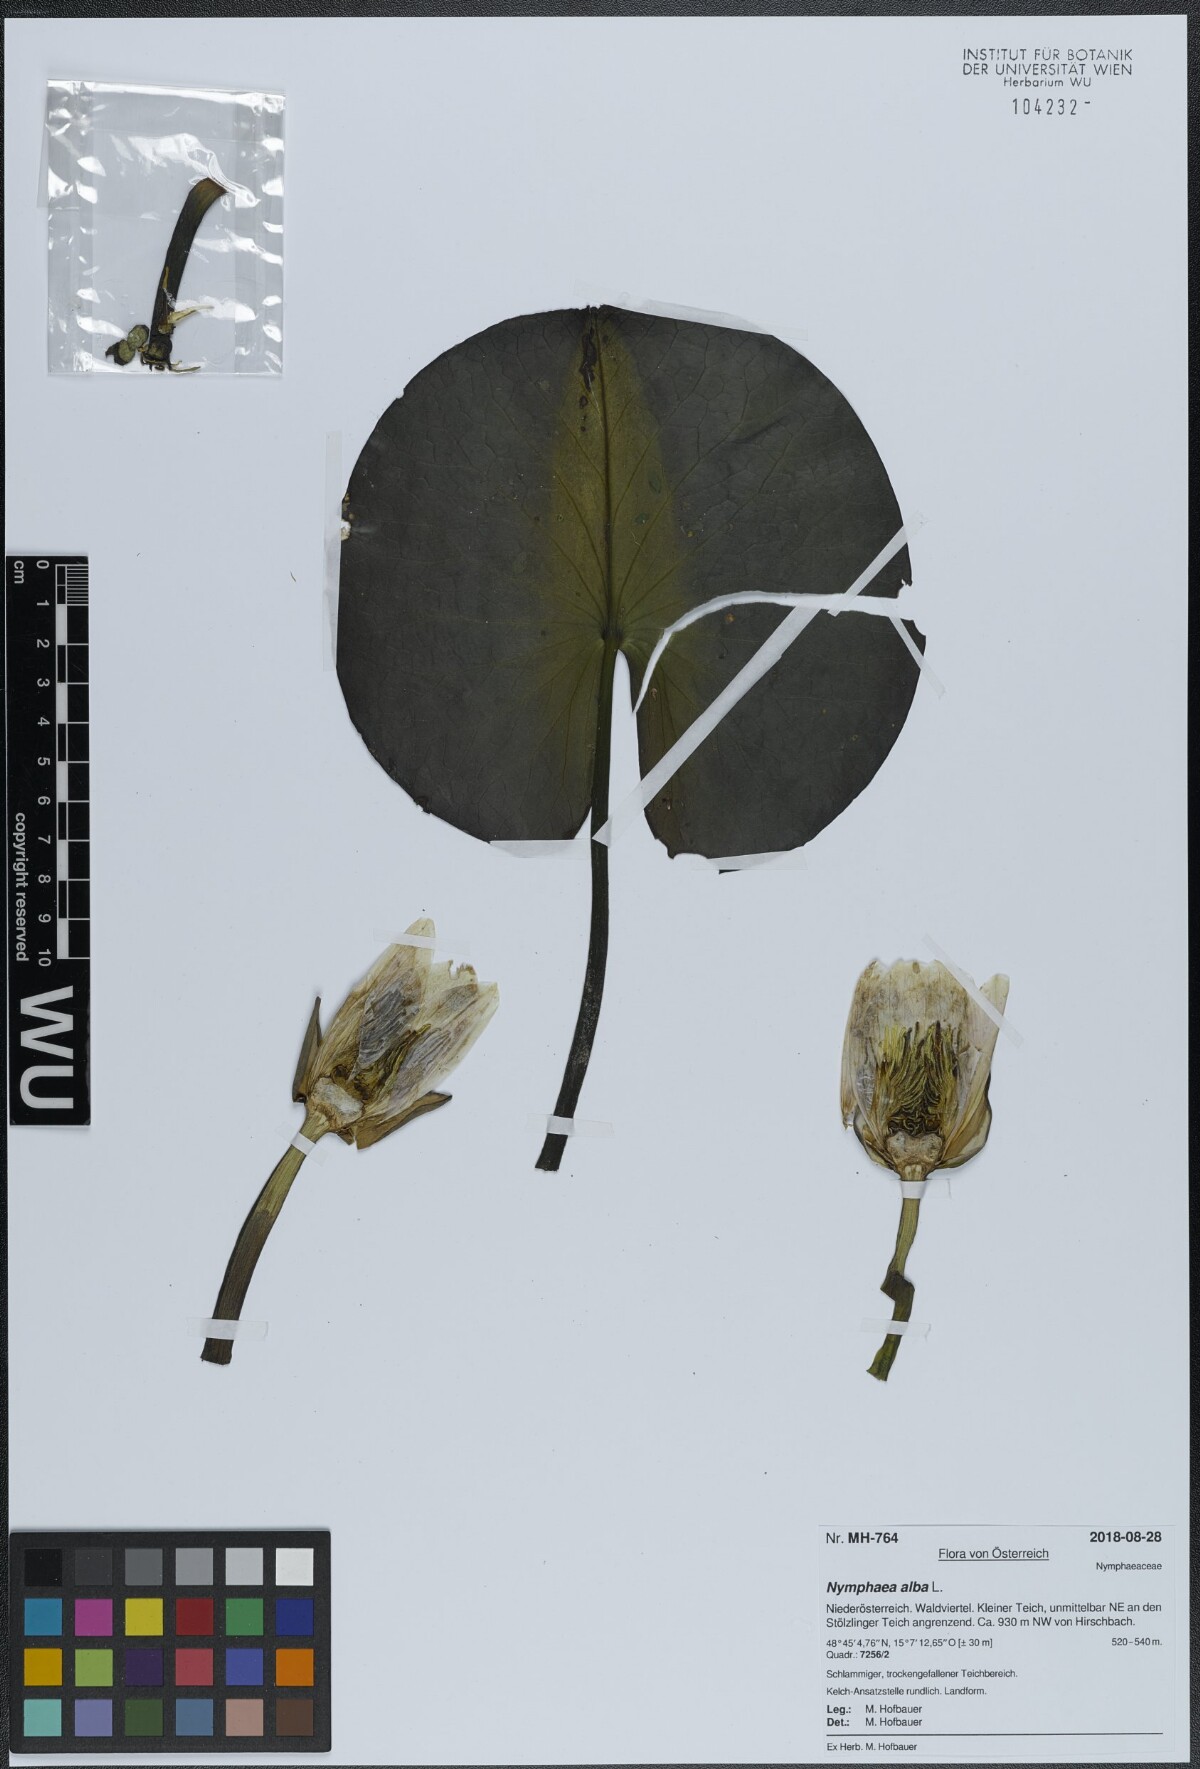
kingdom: Plantae
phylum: Tracheophyta
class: Magnoliopsida
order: Nymphaeales
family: Nymphaeaceae
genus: Nymphaea
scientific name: Nymphaea alba
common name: White water-lily
